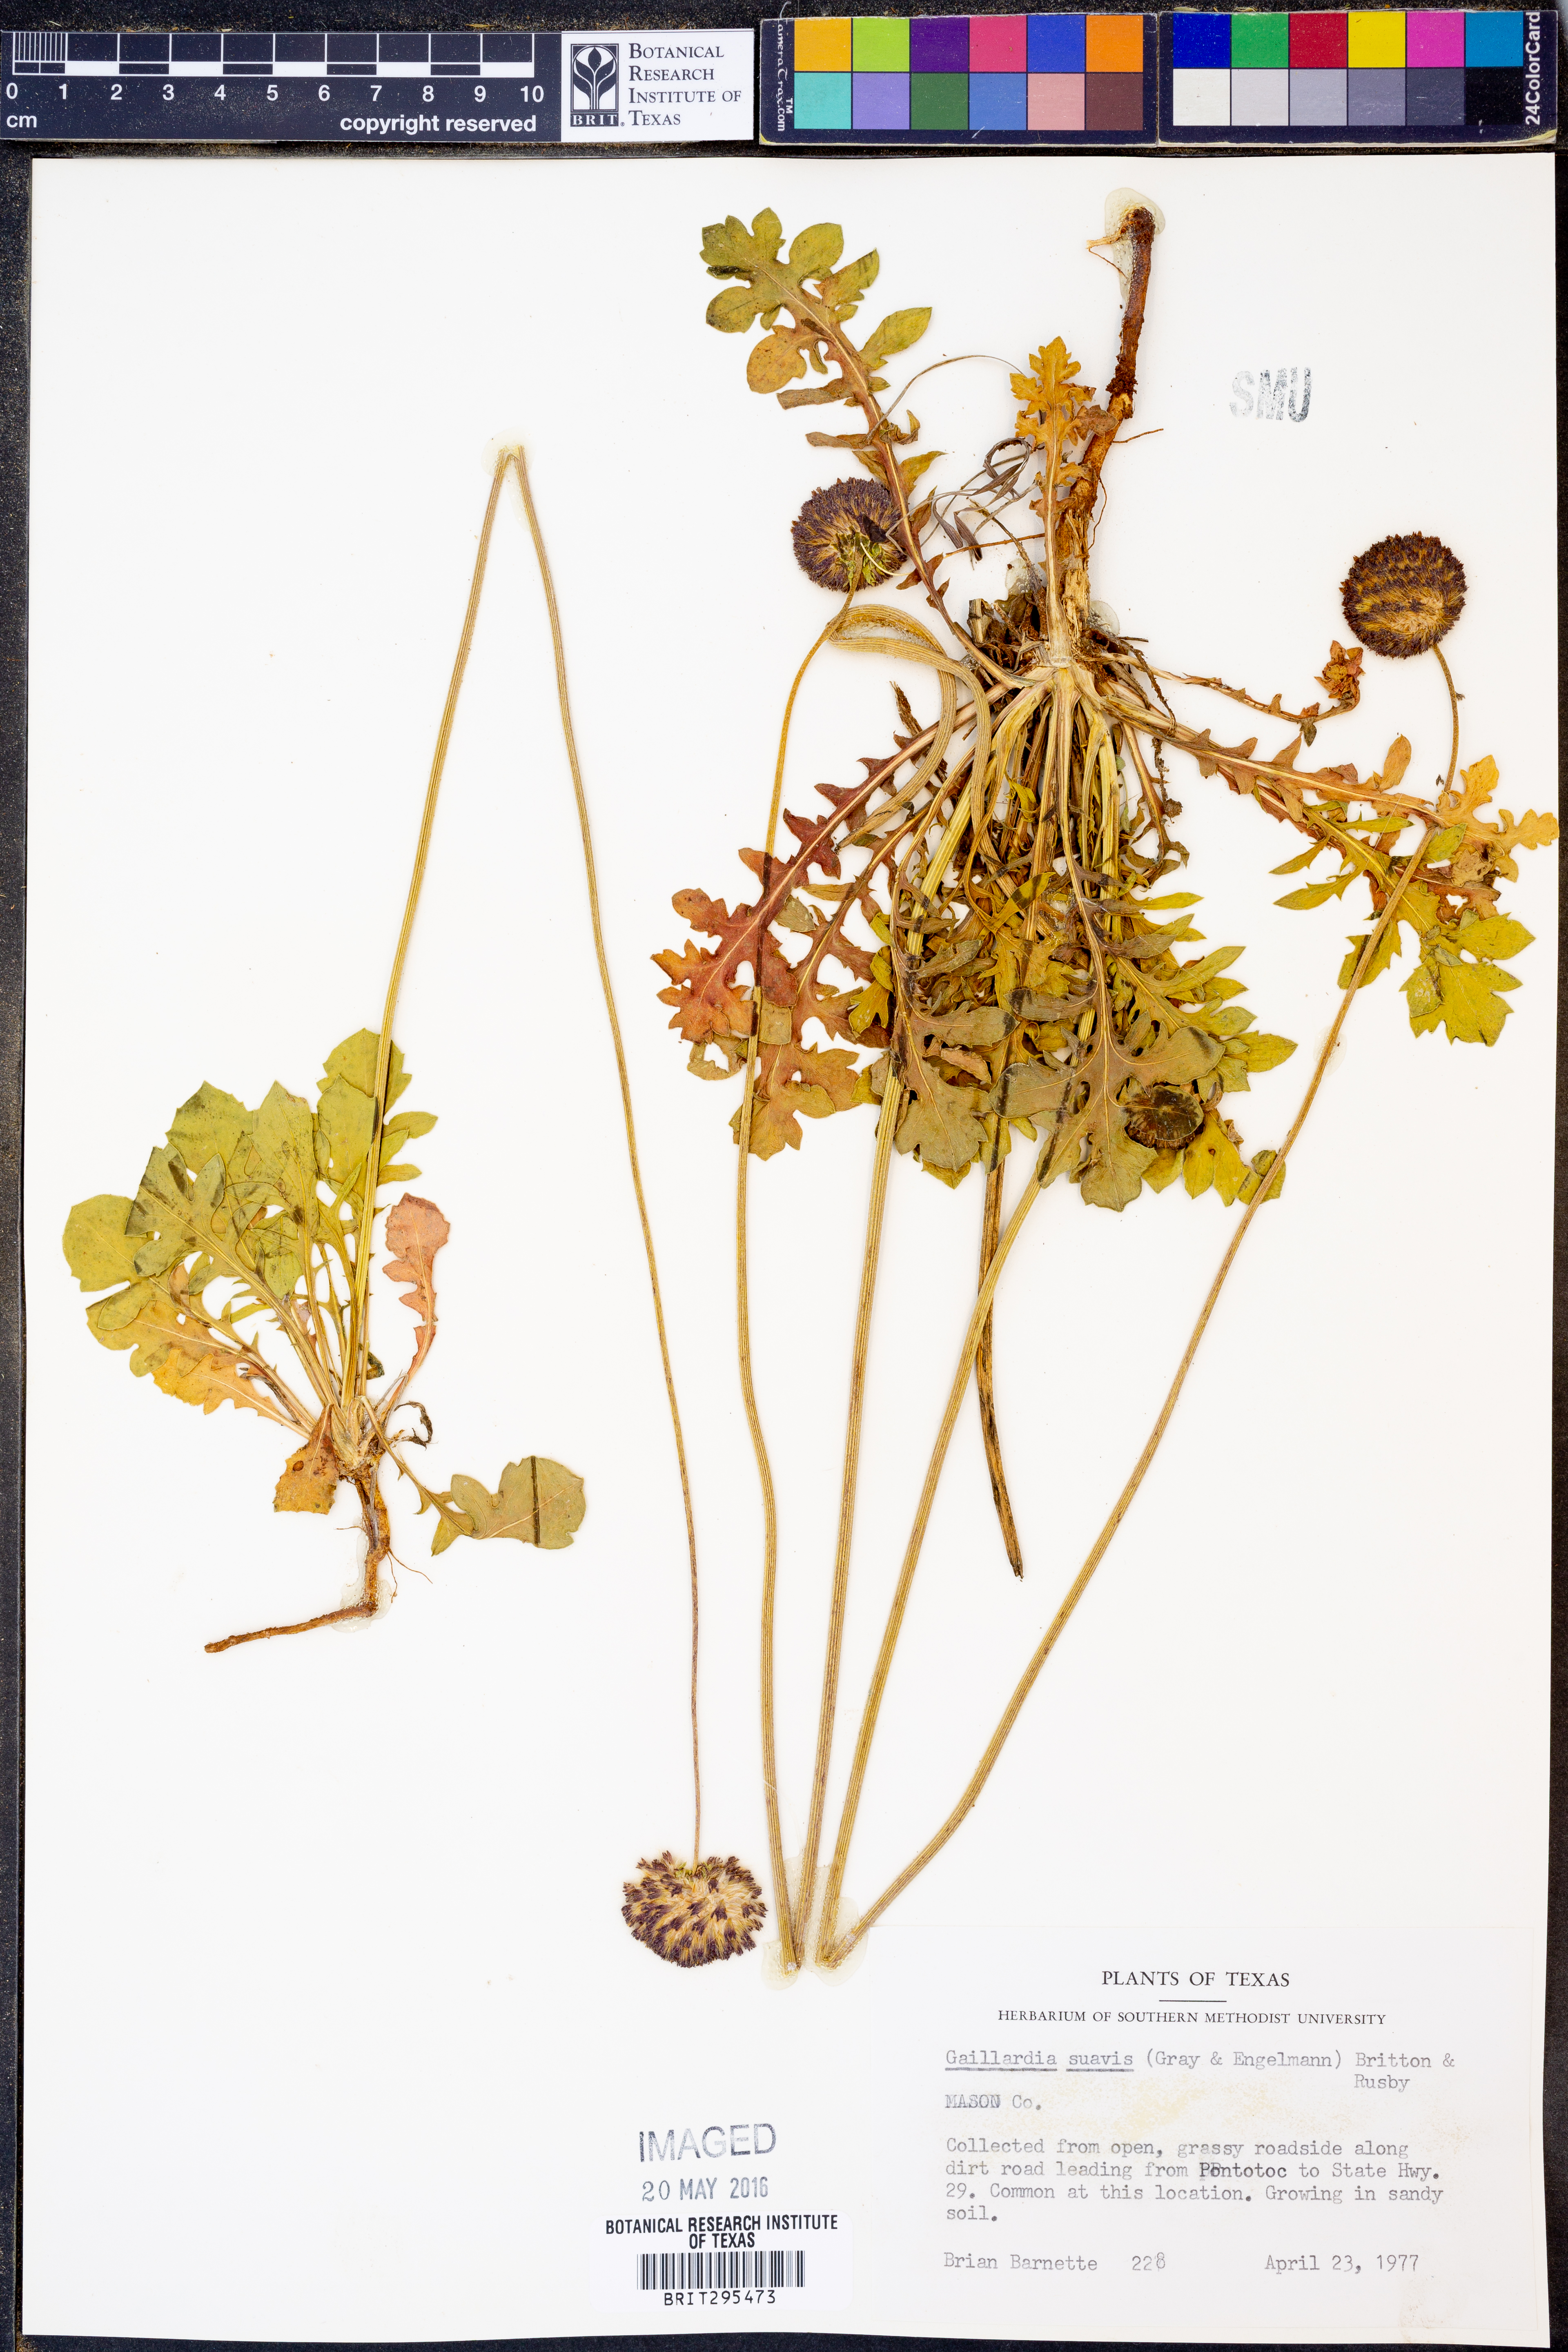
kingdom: Plantae
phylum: Tracheophyta
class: Magnoliopsida
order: Asterales
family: Asteraceae
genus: Gaillardia
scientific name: Gaillardia suavis
